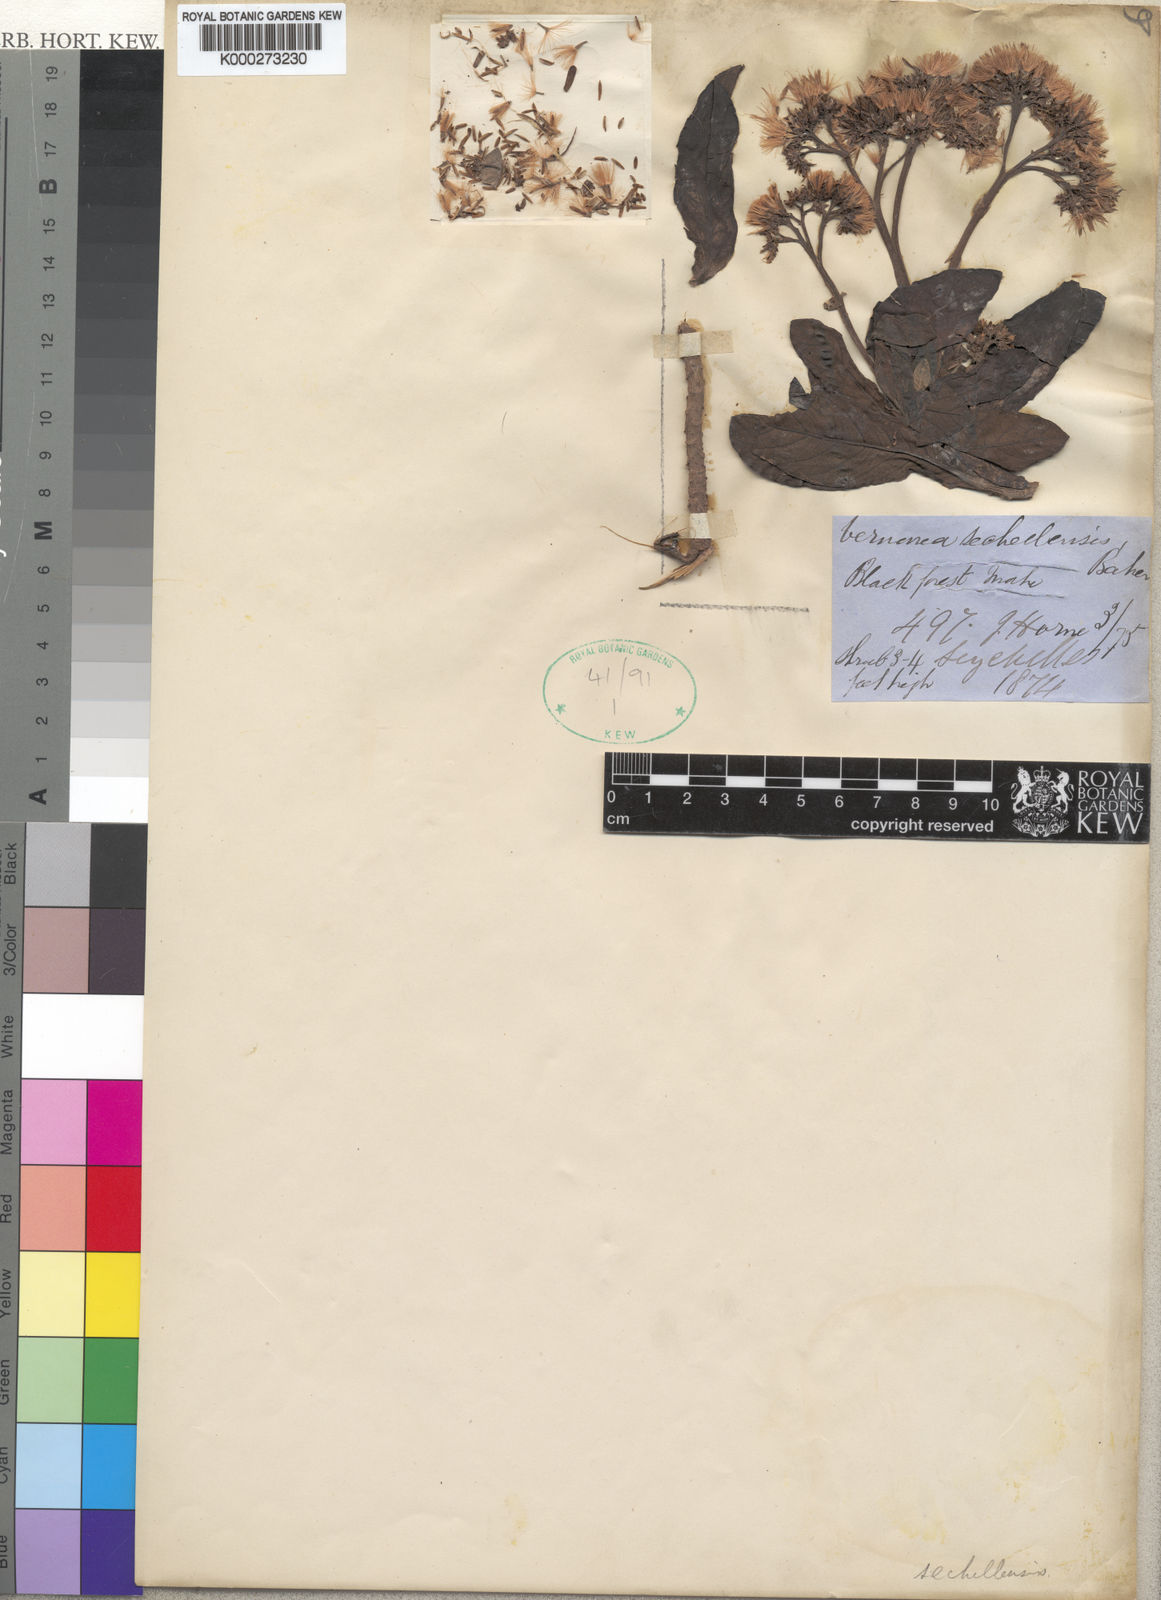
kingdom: Plantae
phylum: Tracheophyta
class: Magnoliopsida
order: Asterales
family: Asteraceae
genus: Vernonia
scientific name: Vernonia sechellensis
